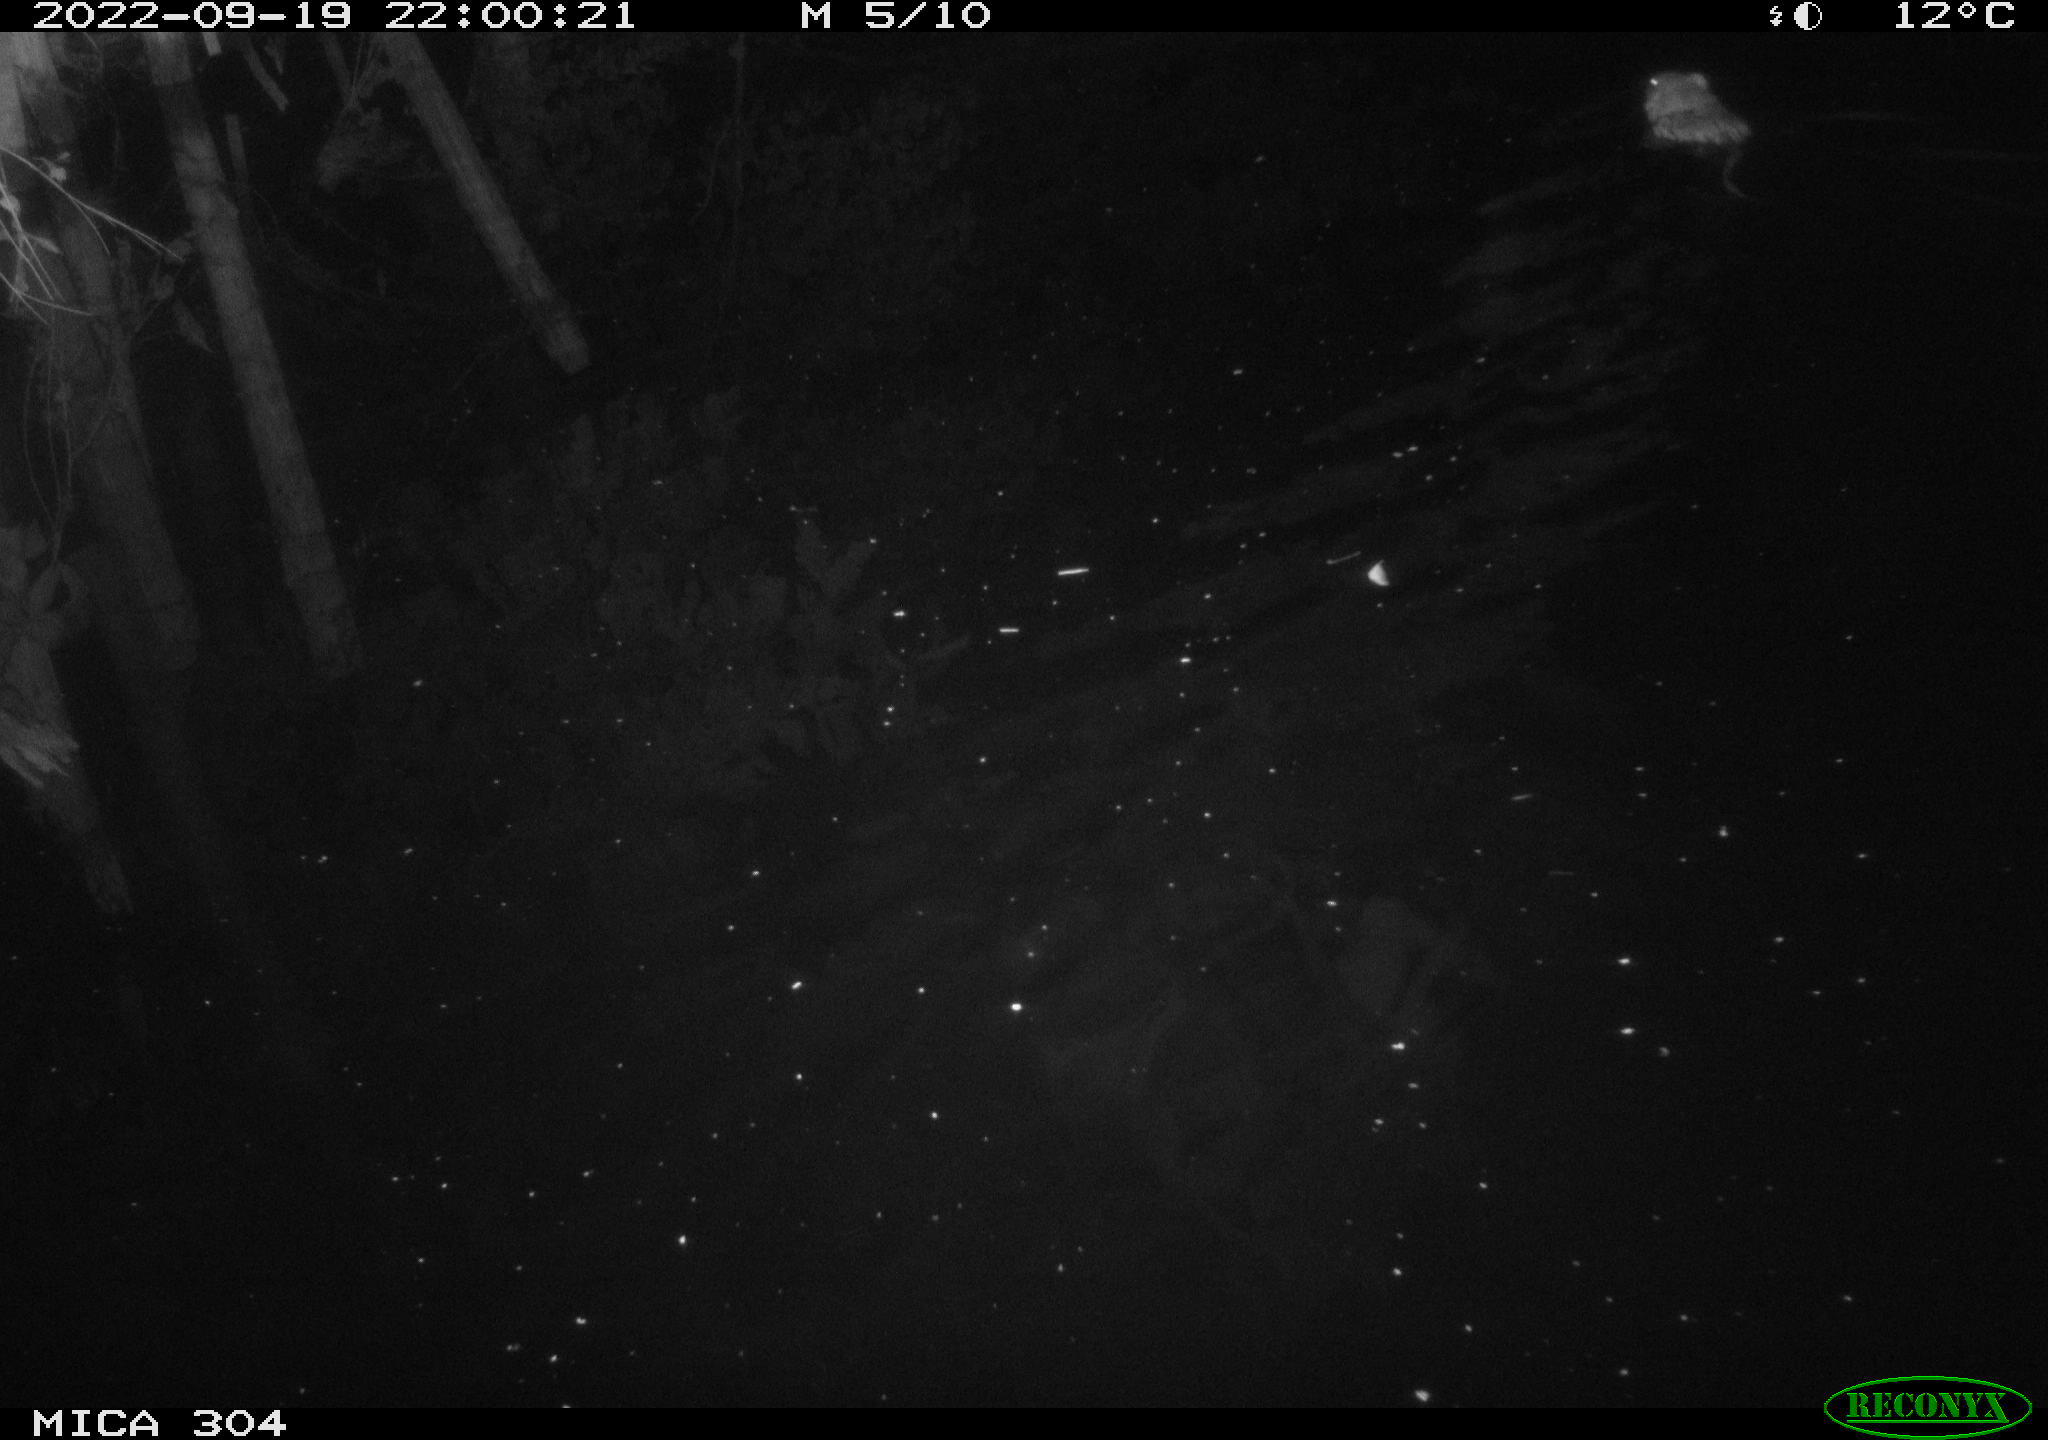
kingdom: Animalia
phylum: Chordata
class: Mammalia
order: Rodentia
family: Cricetidae
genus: Ondatra
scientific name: Ondatra zibethicus
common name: Muskrat
